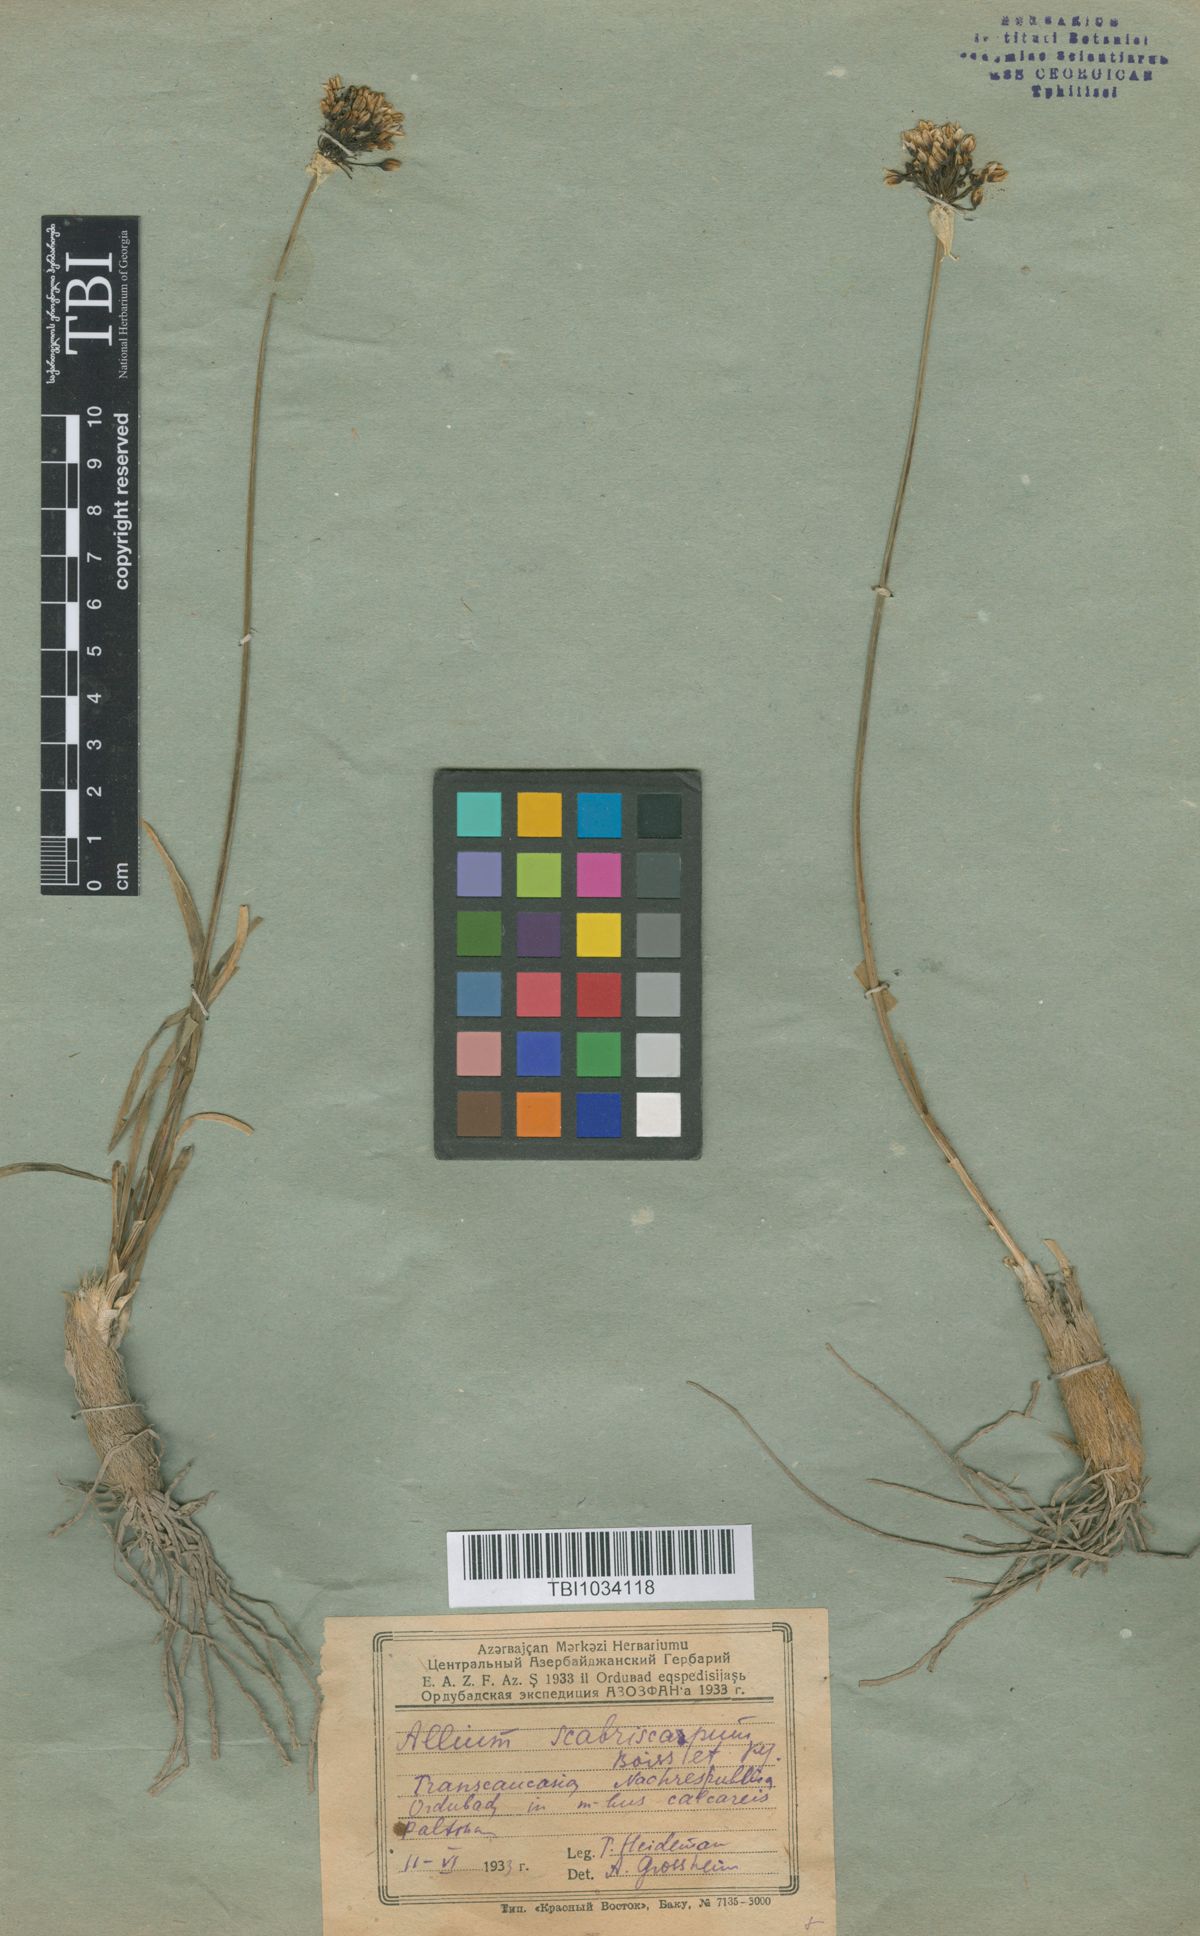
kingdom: Plantae
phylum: Tracheophyta
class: Liliopsida
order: Asparagales
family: Amaryllidaceae
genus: Allium
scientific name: Allium scabriscapum
